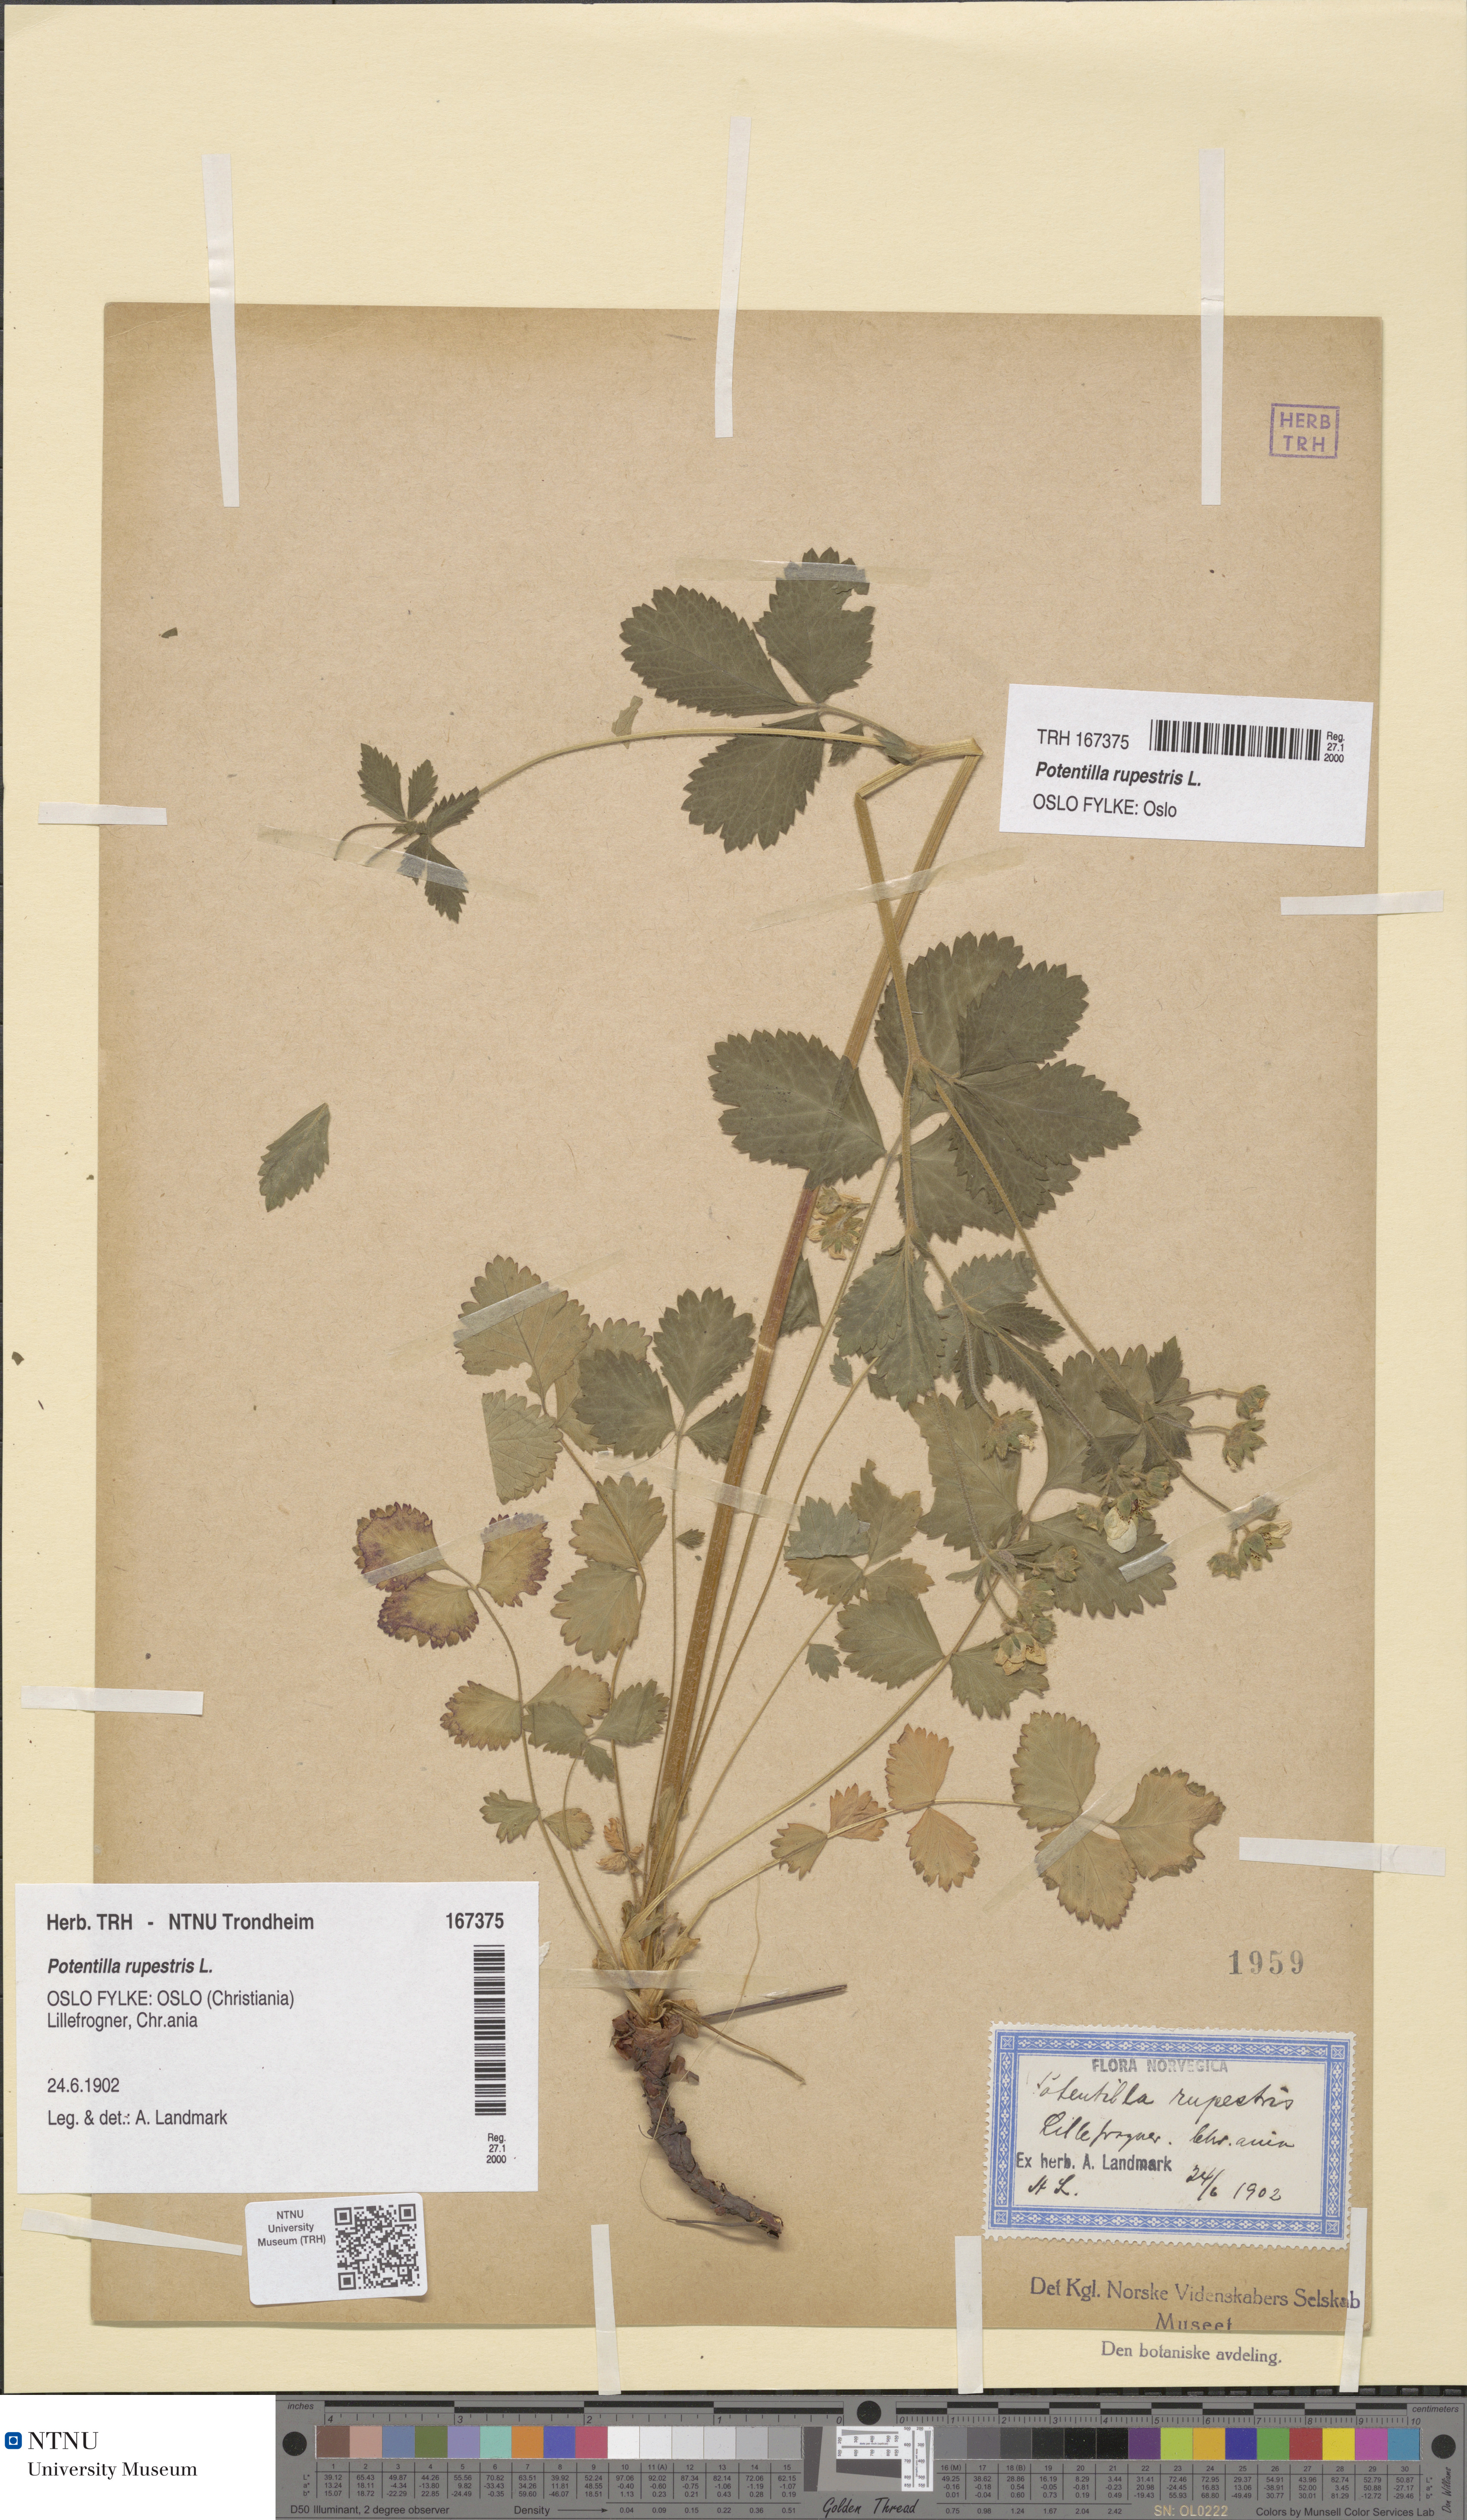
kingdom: Plantae
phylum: Tracheophyta
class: Magnoliopsida
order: Rosales
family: Rosaceae
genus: Drymocallis
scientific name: Drymocallis rupestris
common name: Rock cinquefoil
